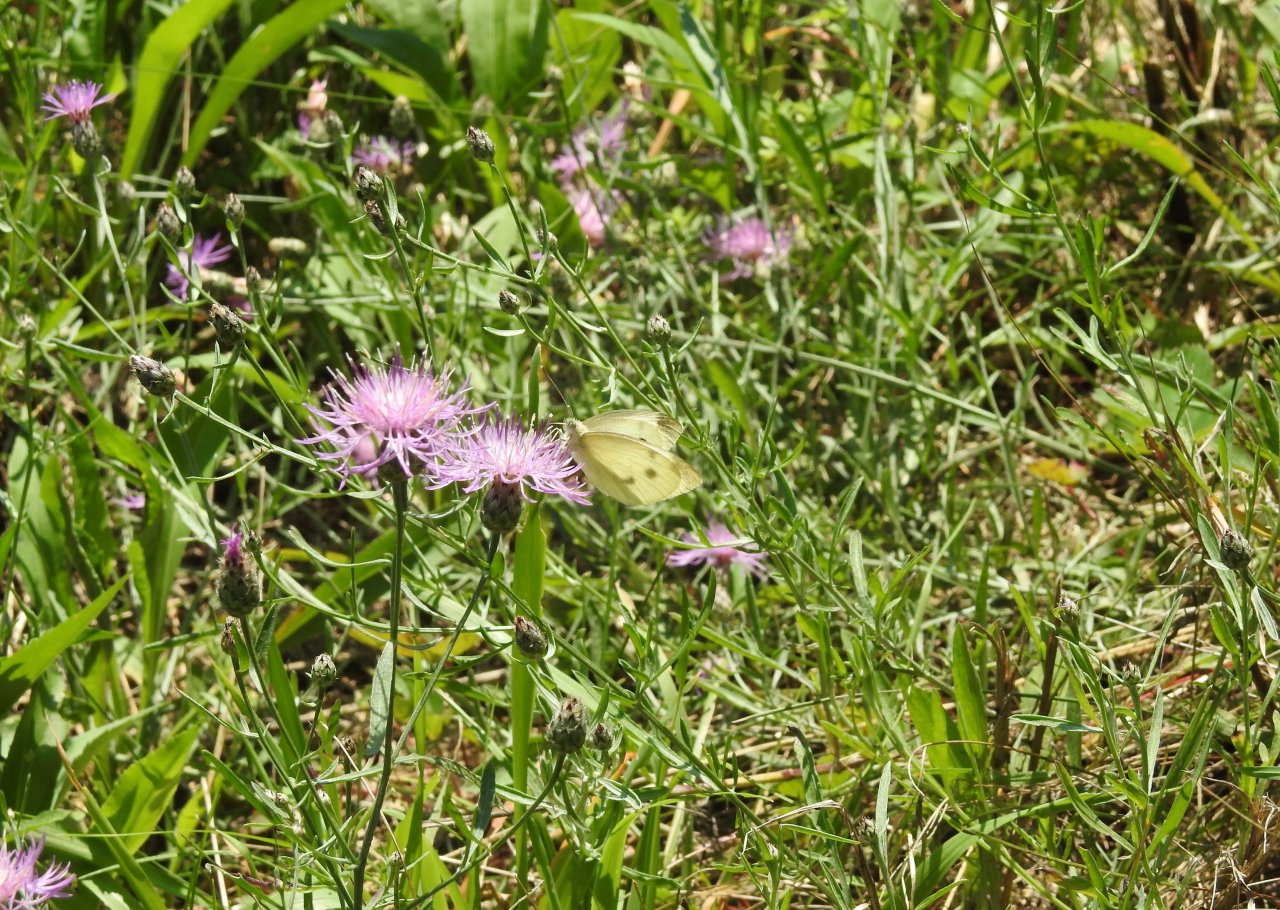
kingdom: Animalia
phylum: Arthropoda
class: Insecta
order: Lepidoptera
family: Pieridae
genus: Pieris
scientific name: Pieris rapae
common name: Cabbage White
